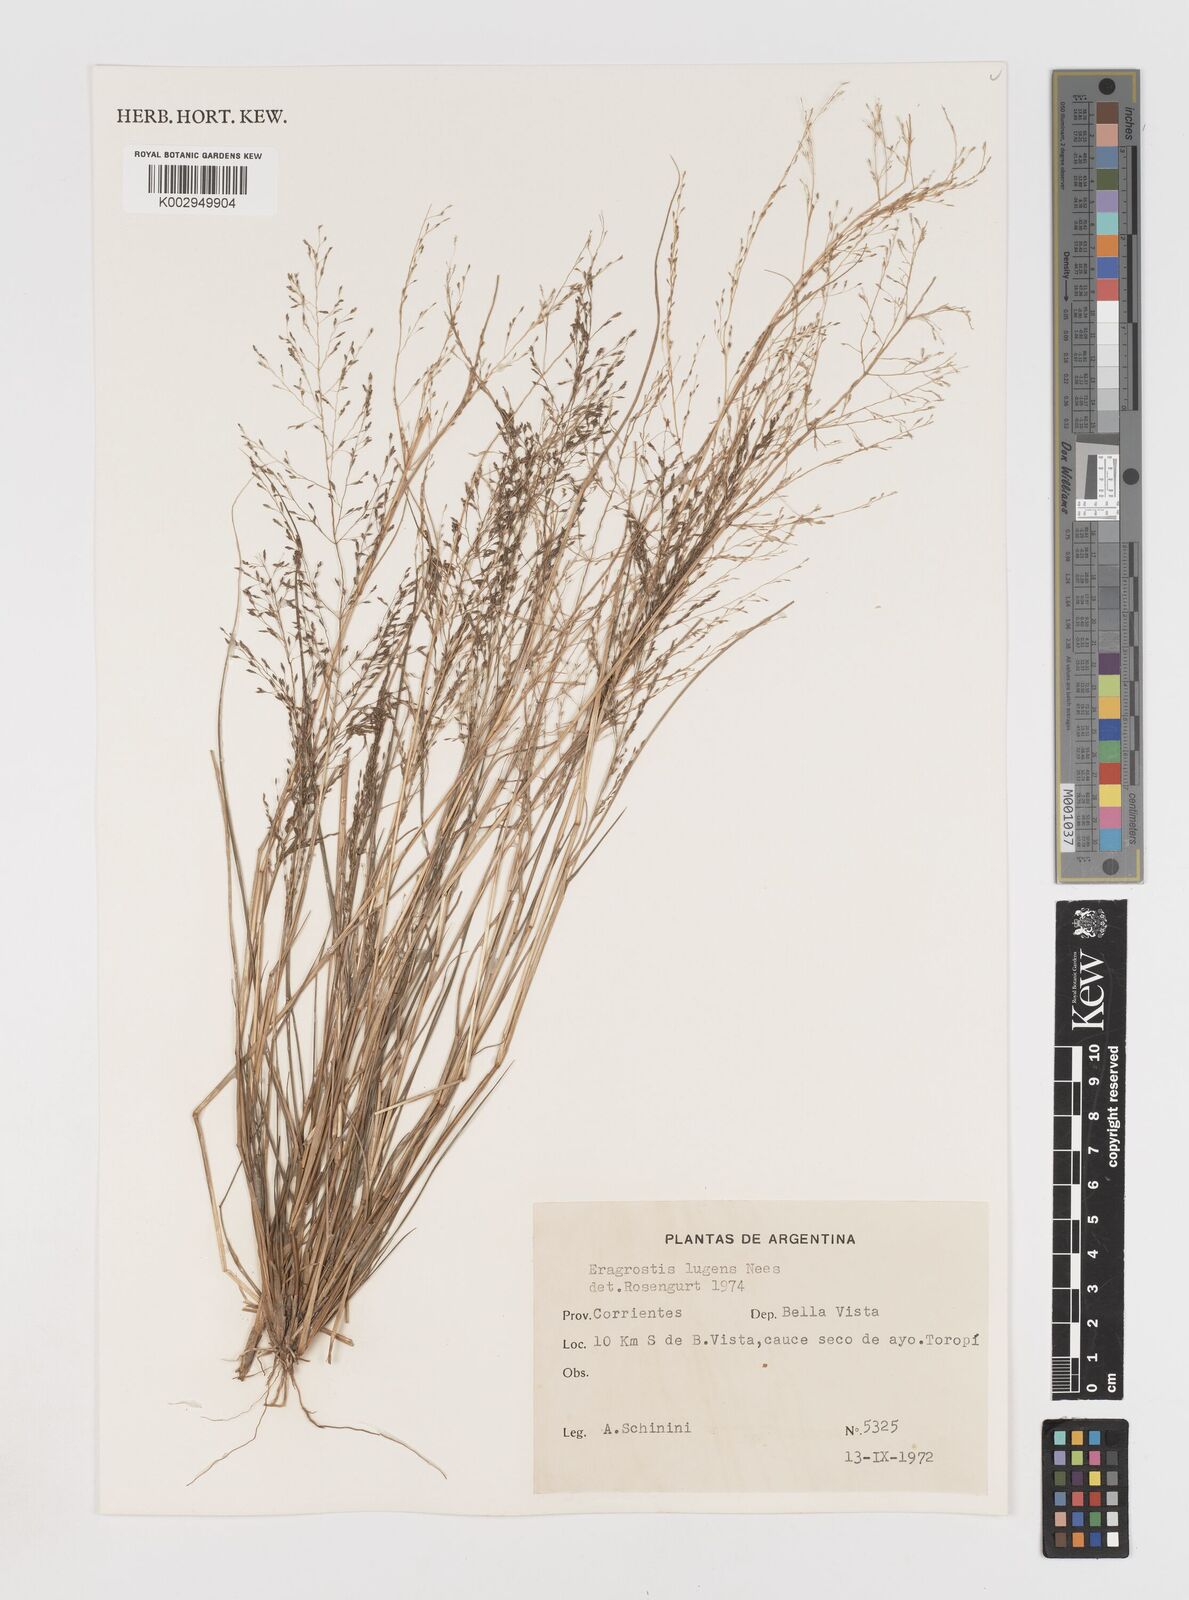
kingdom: Plantae
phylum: Tracheophyta
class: Liliopsida
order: Poales
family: Poaceae
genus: Eragrostis
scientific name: Eragrostis lugens
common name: Mourning love grass
